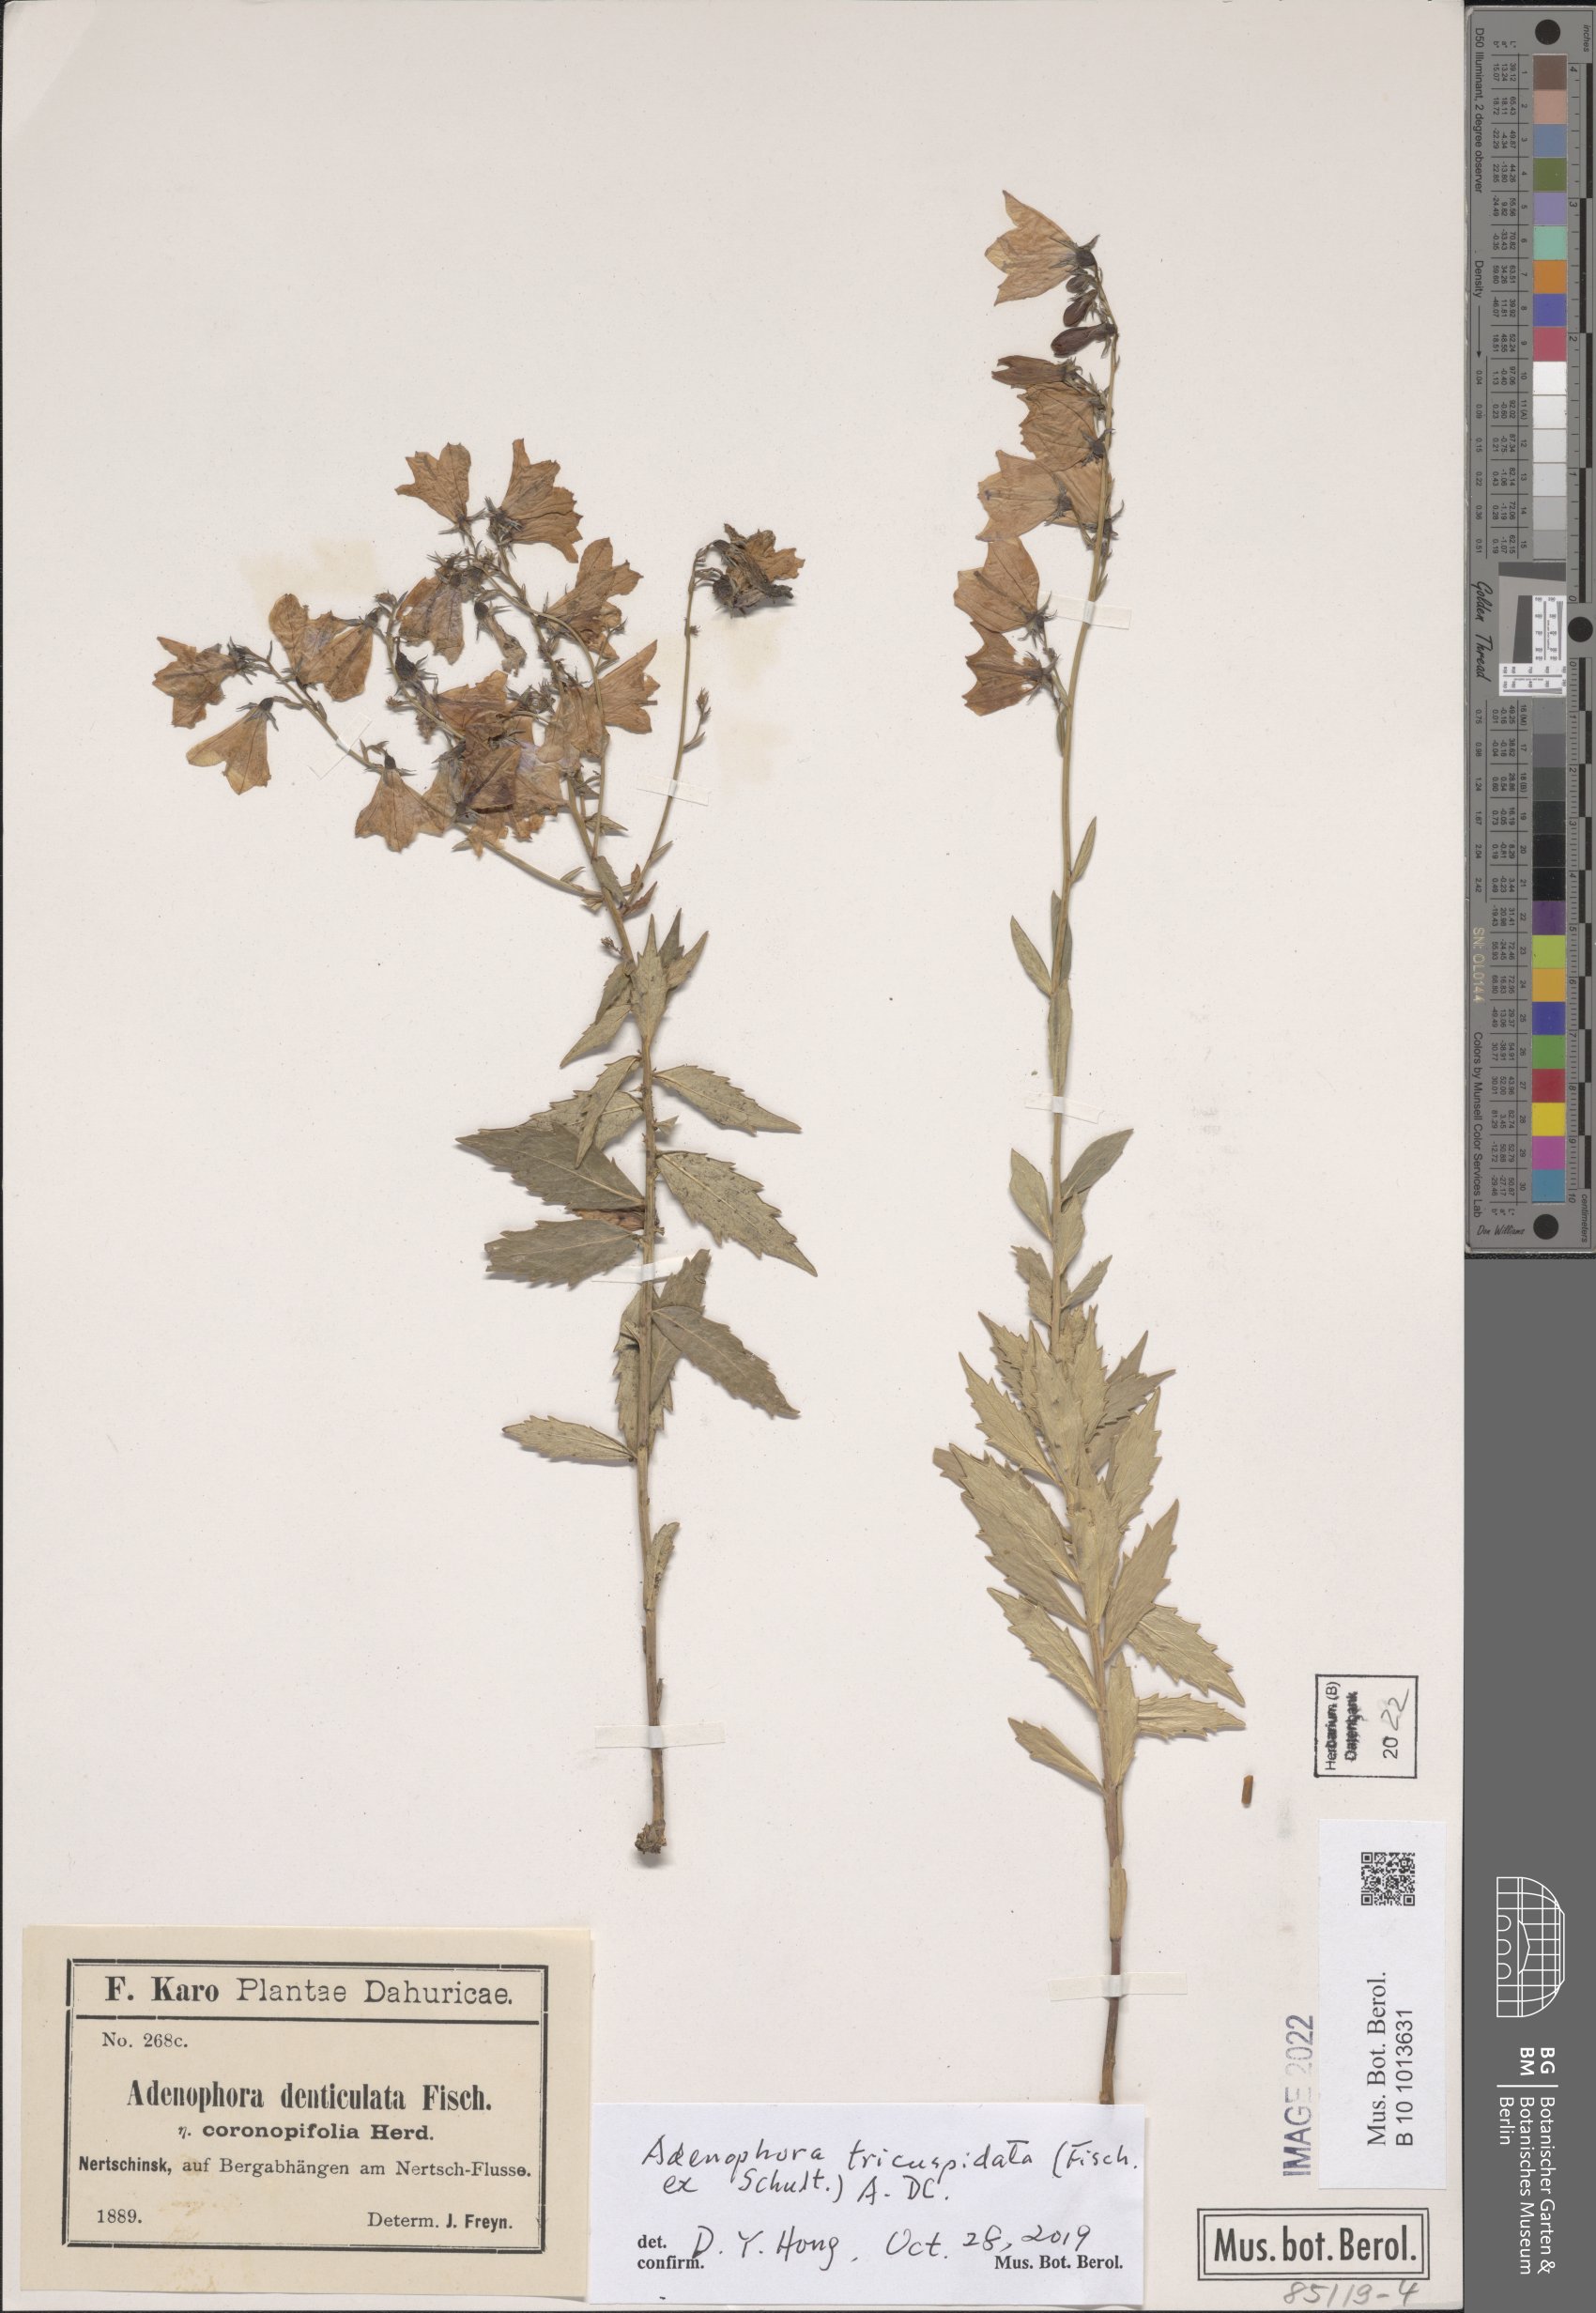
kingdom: Plantae
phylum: Tracheophyta
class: Magnoliopsida
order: Asterales
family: Campanulaceae
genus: Adenophora
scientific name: Adenophora tricuspidata
